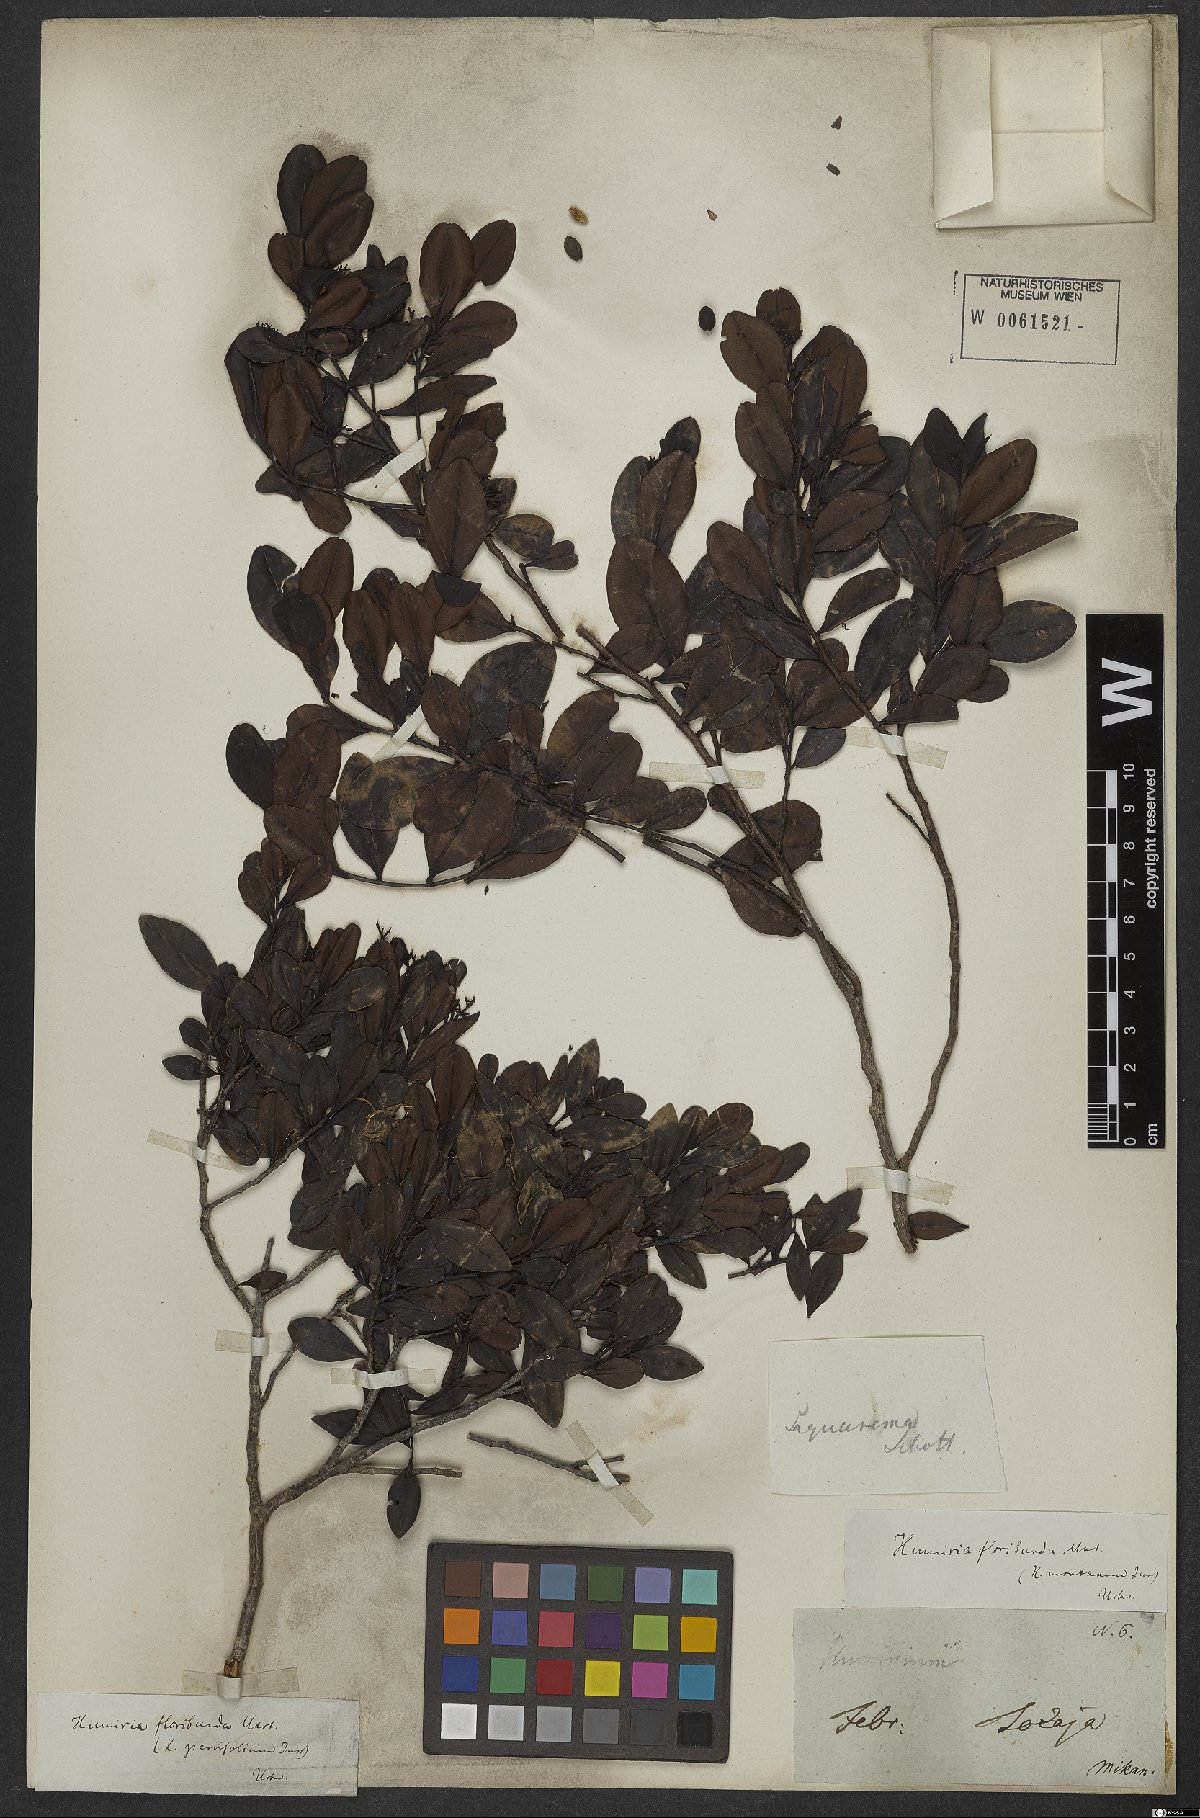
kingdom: Plantae
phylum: Tracheophyta
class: Magnoliopsida
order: Malpighiales
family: Humiriaceae
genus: Humiria
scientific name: Humiria
